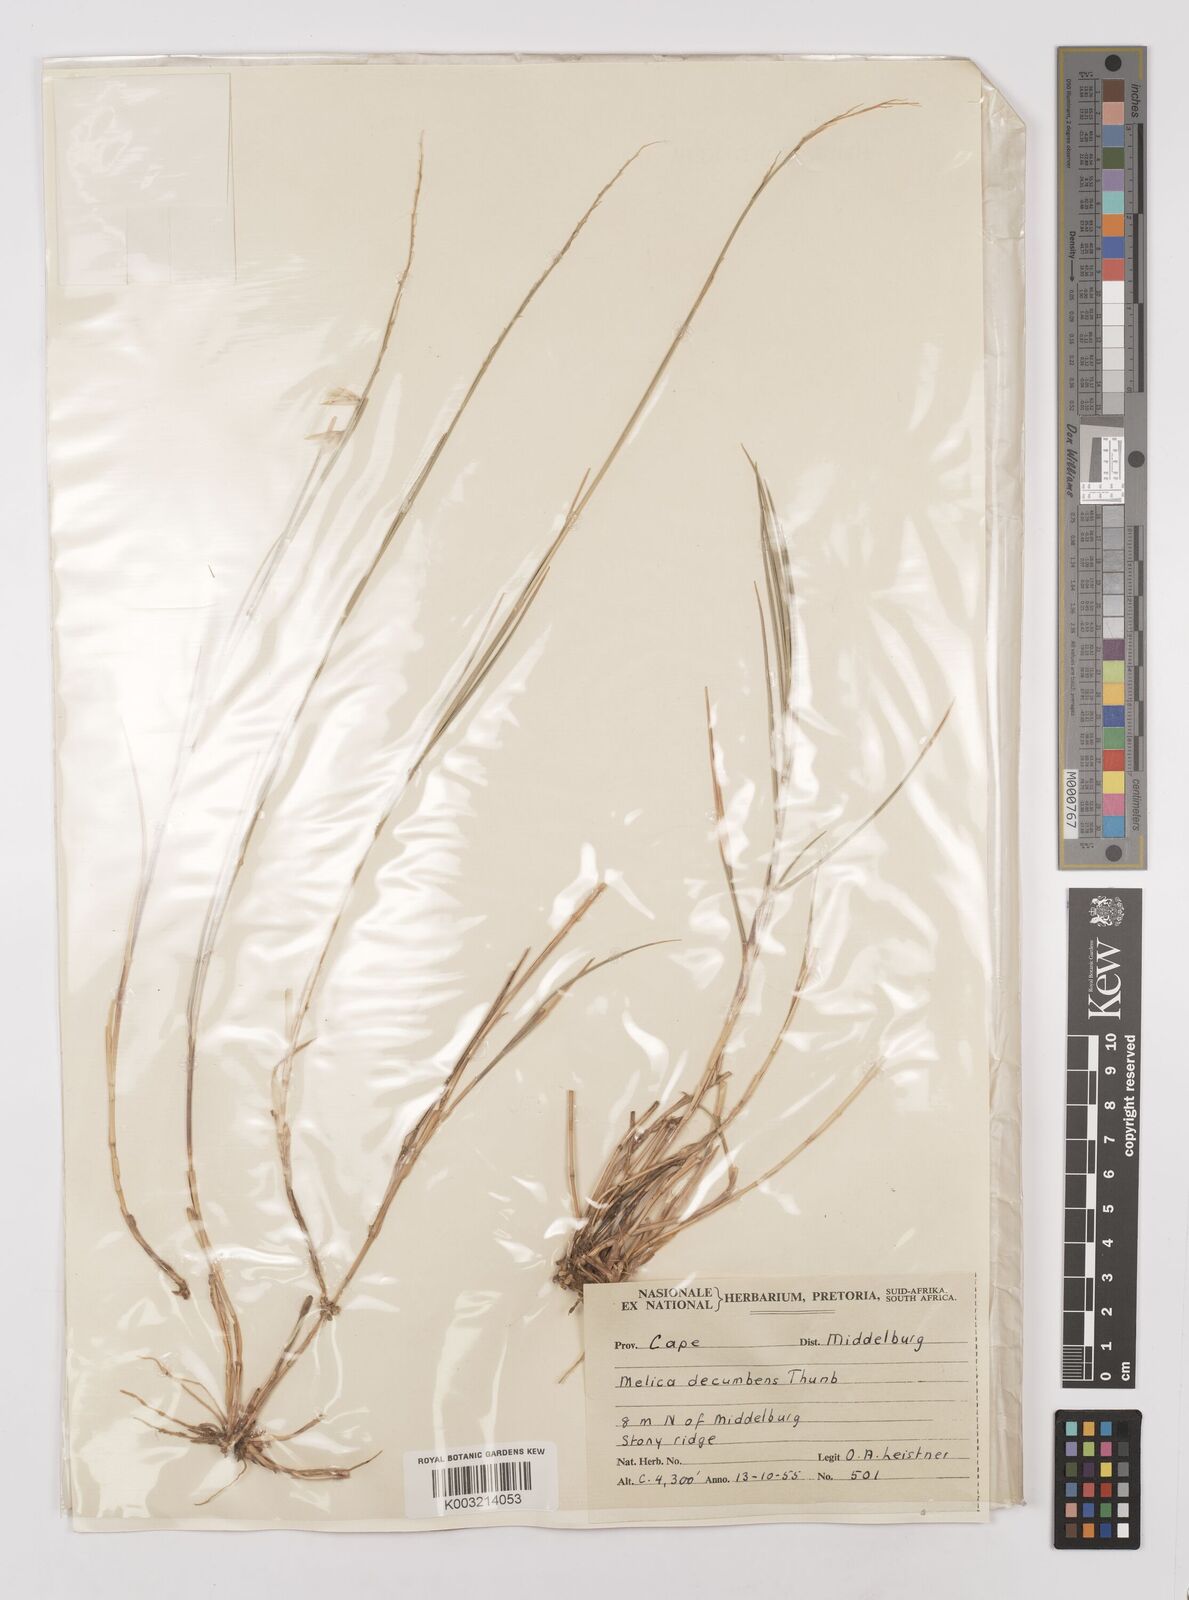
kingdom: Plantae
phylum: Tracheophyta
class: Liliopsida
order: Poales
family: Poaceae
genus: Melica
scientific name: Melica dendroides
